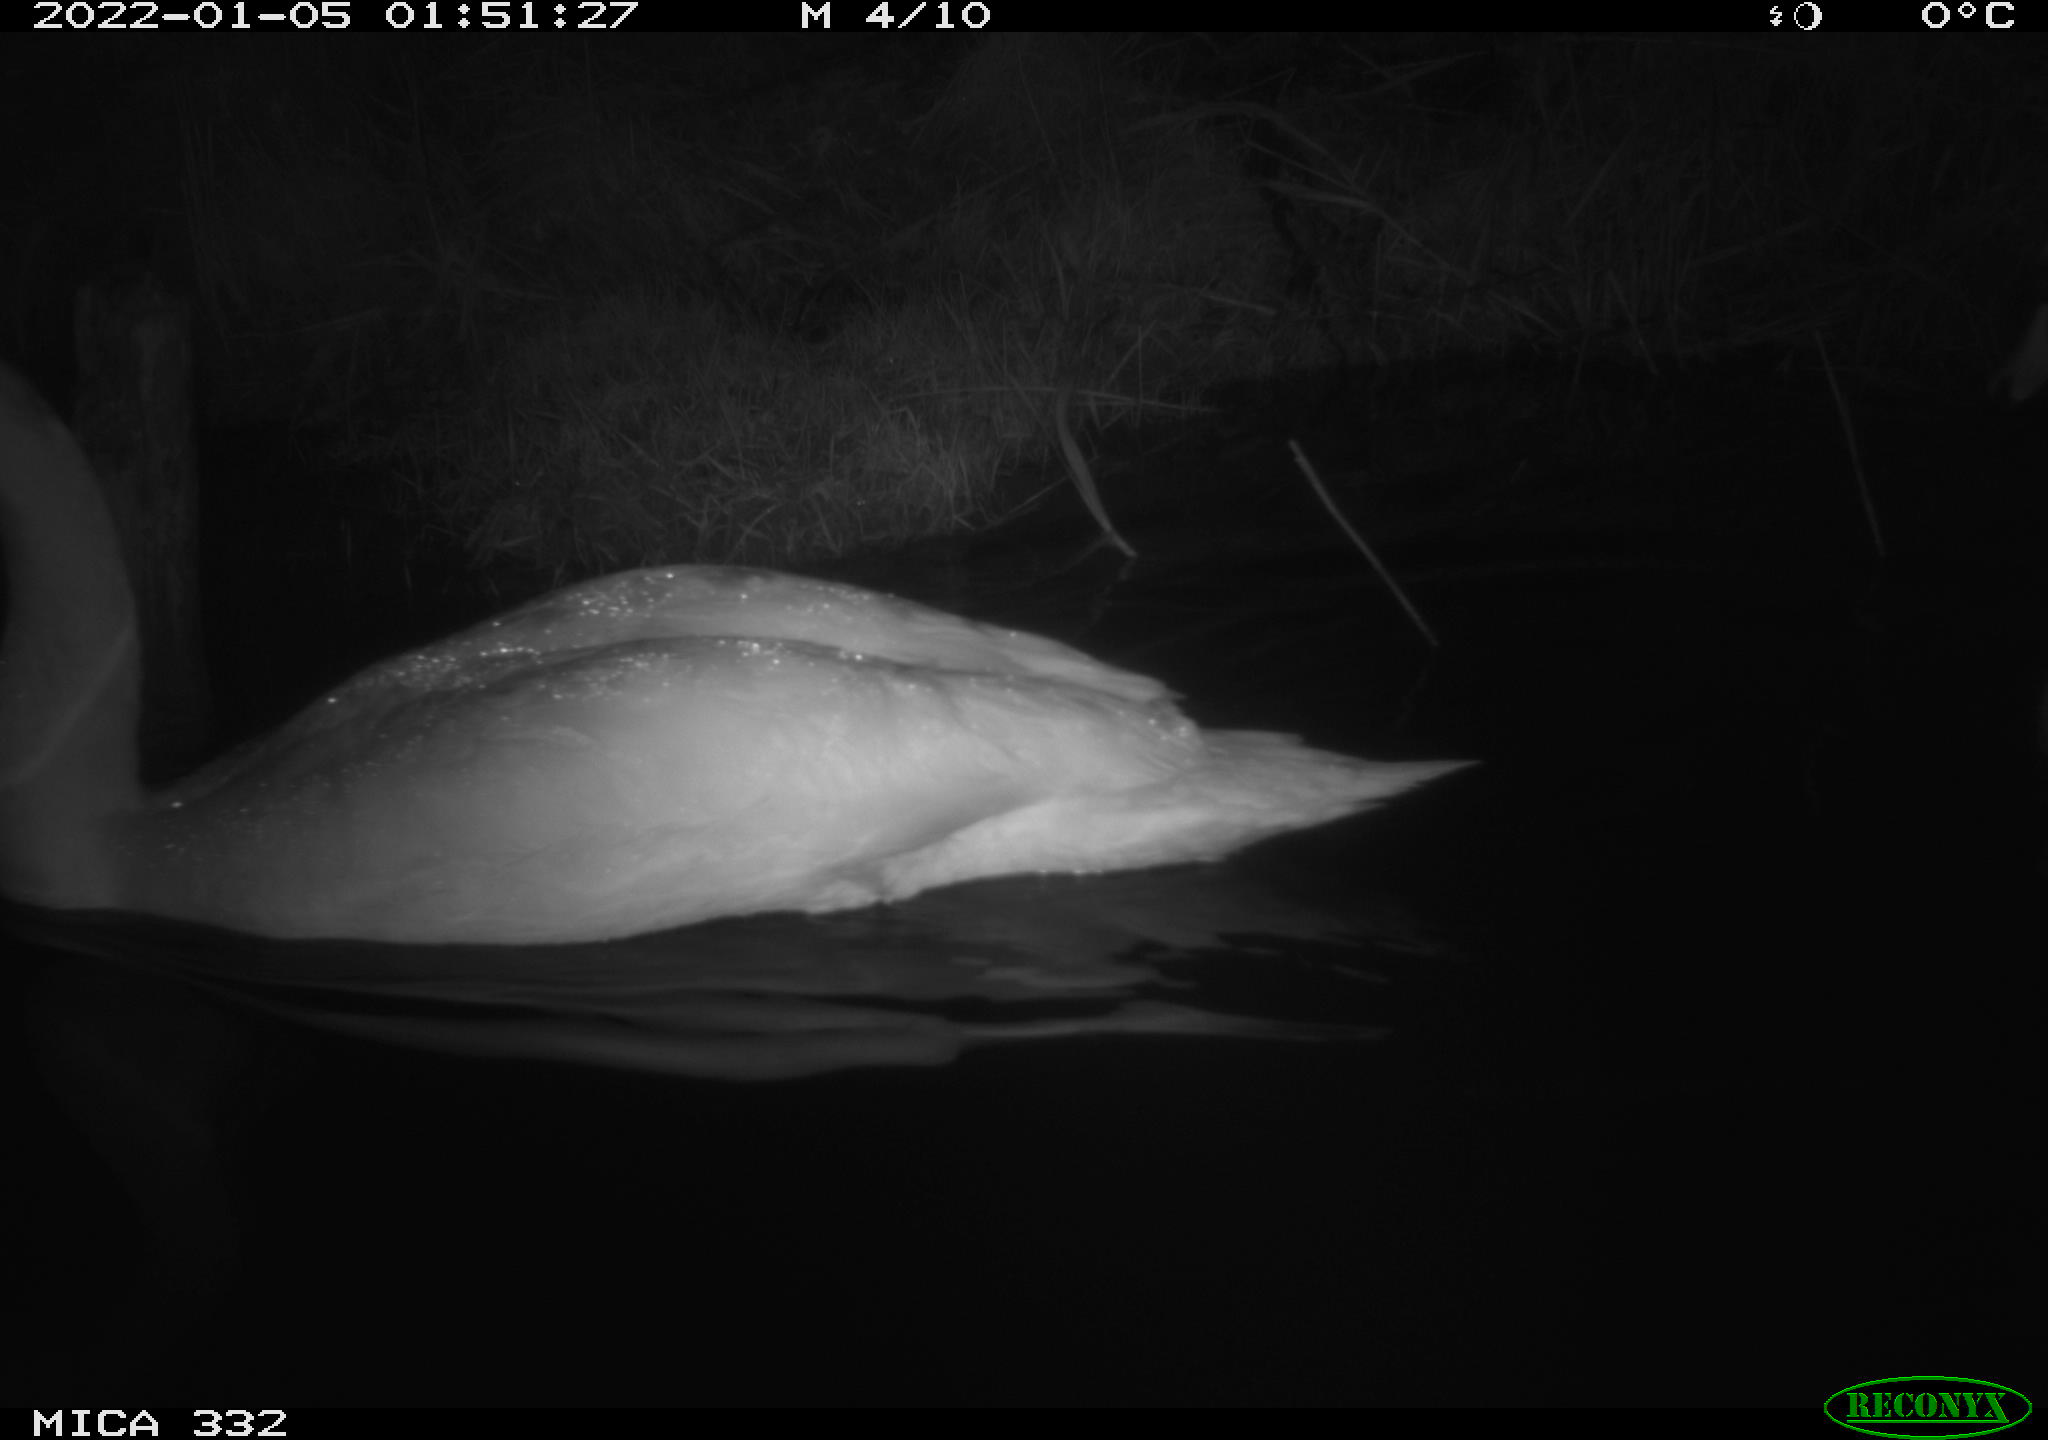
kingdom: Animalia
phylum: Chordata
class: Aves
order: Anseriformes
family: Anatidae
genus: Cygnus
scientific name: Cygnus olor
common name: Mute swan
